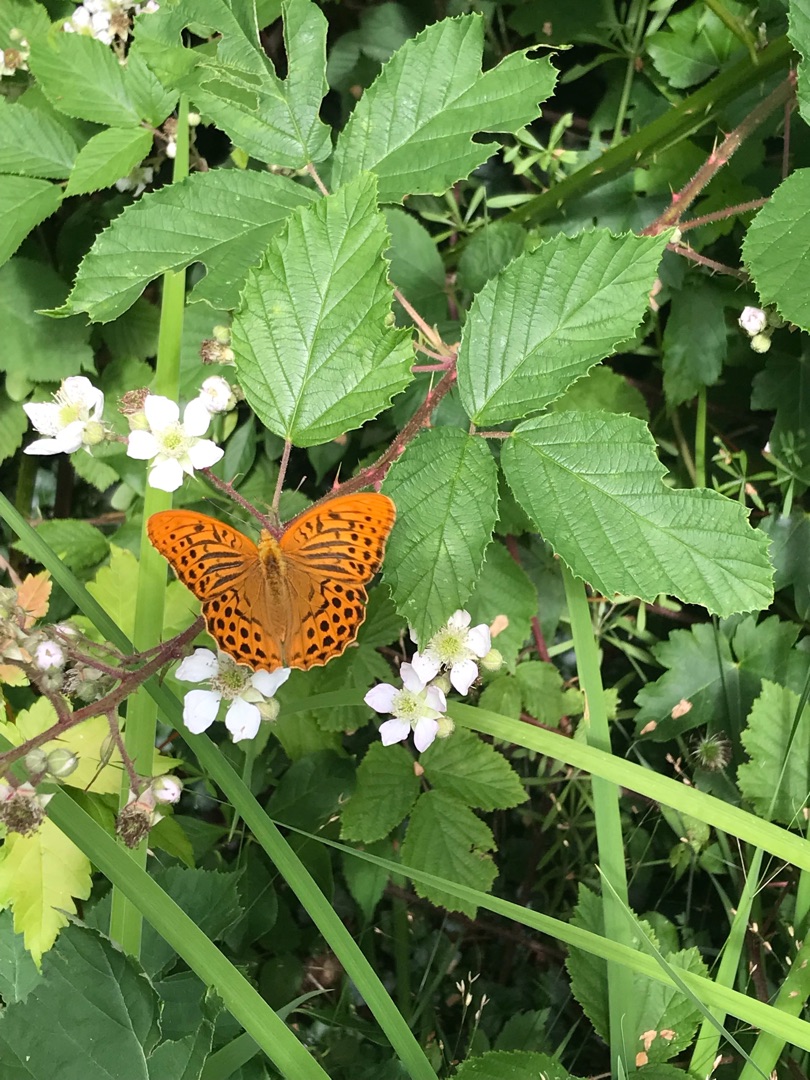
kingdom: Animalia
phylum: Arthropoda
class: Insecta
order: Lepidoptera
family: Nymphalidae
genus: Argynnis
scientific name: Argynnis paphia
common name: Kejserkåbe
